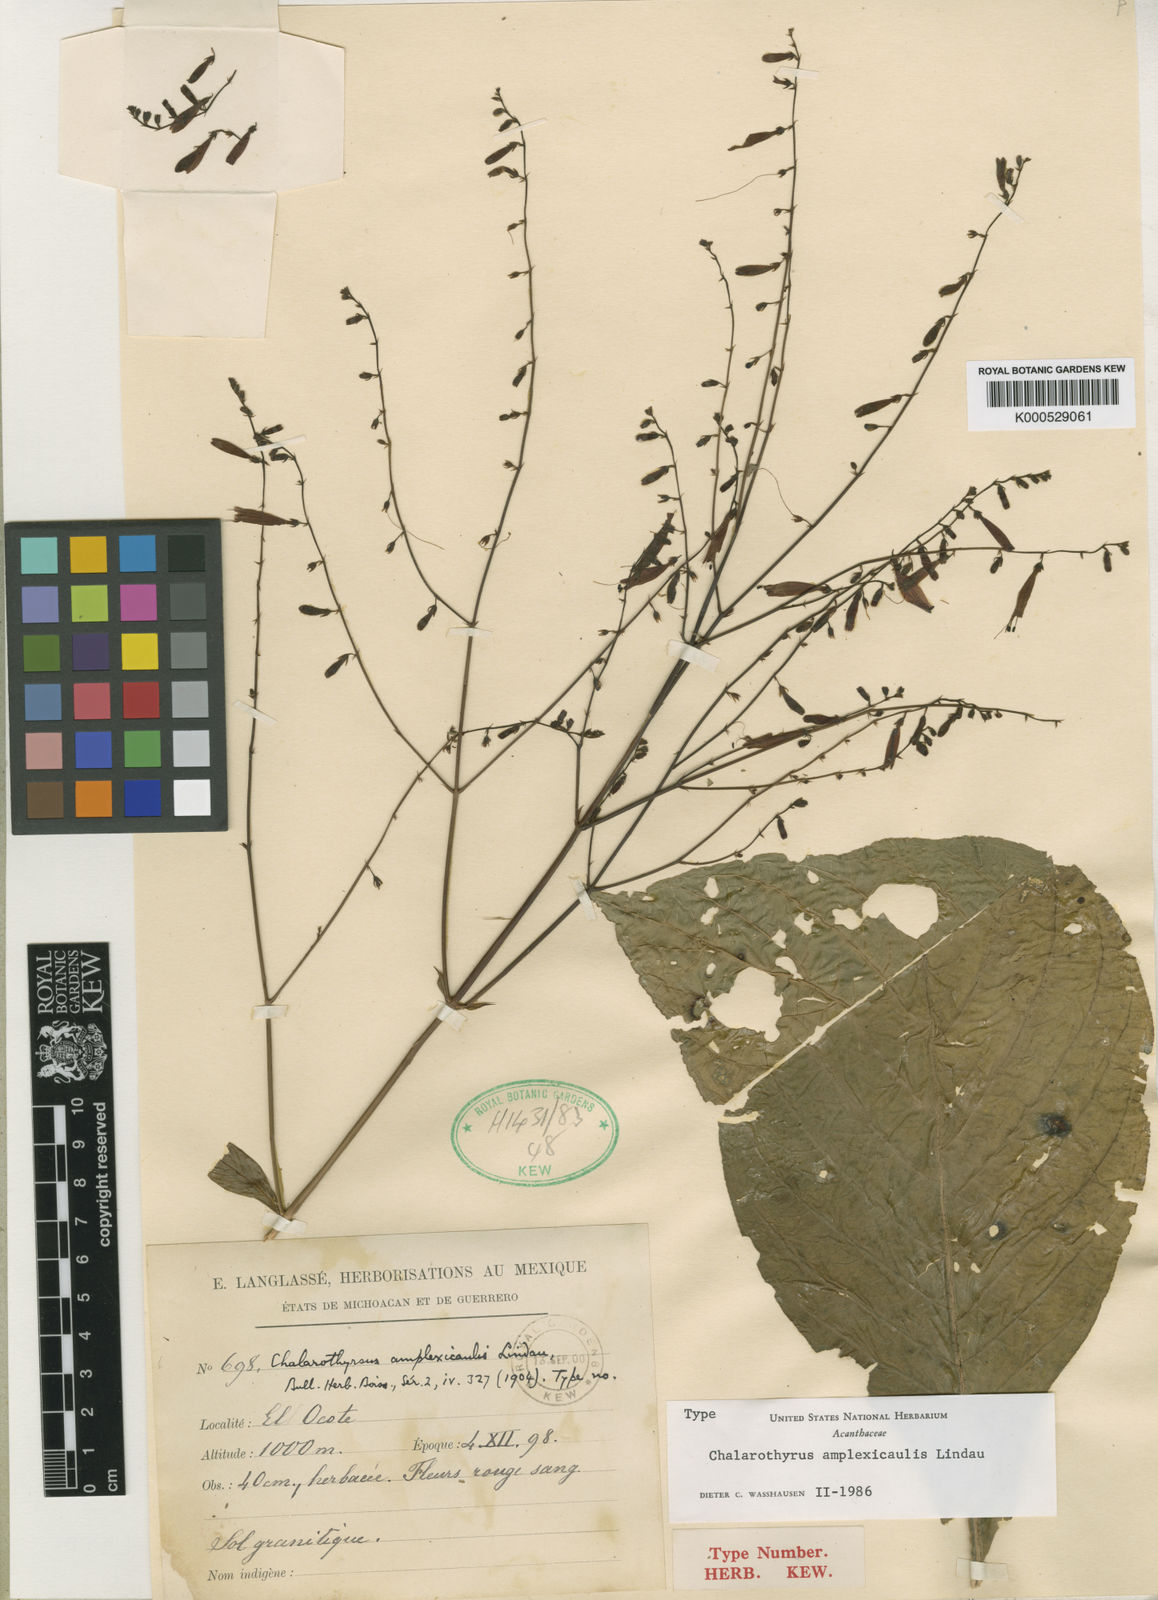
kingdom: Plantae
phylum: Tracheophyta
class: Magnoliopsida
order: Lamiales
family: Acanthaceae
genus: Chalarothyrsus
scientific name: Chalarothyrsus amplexicaulis
